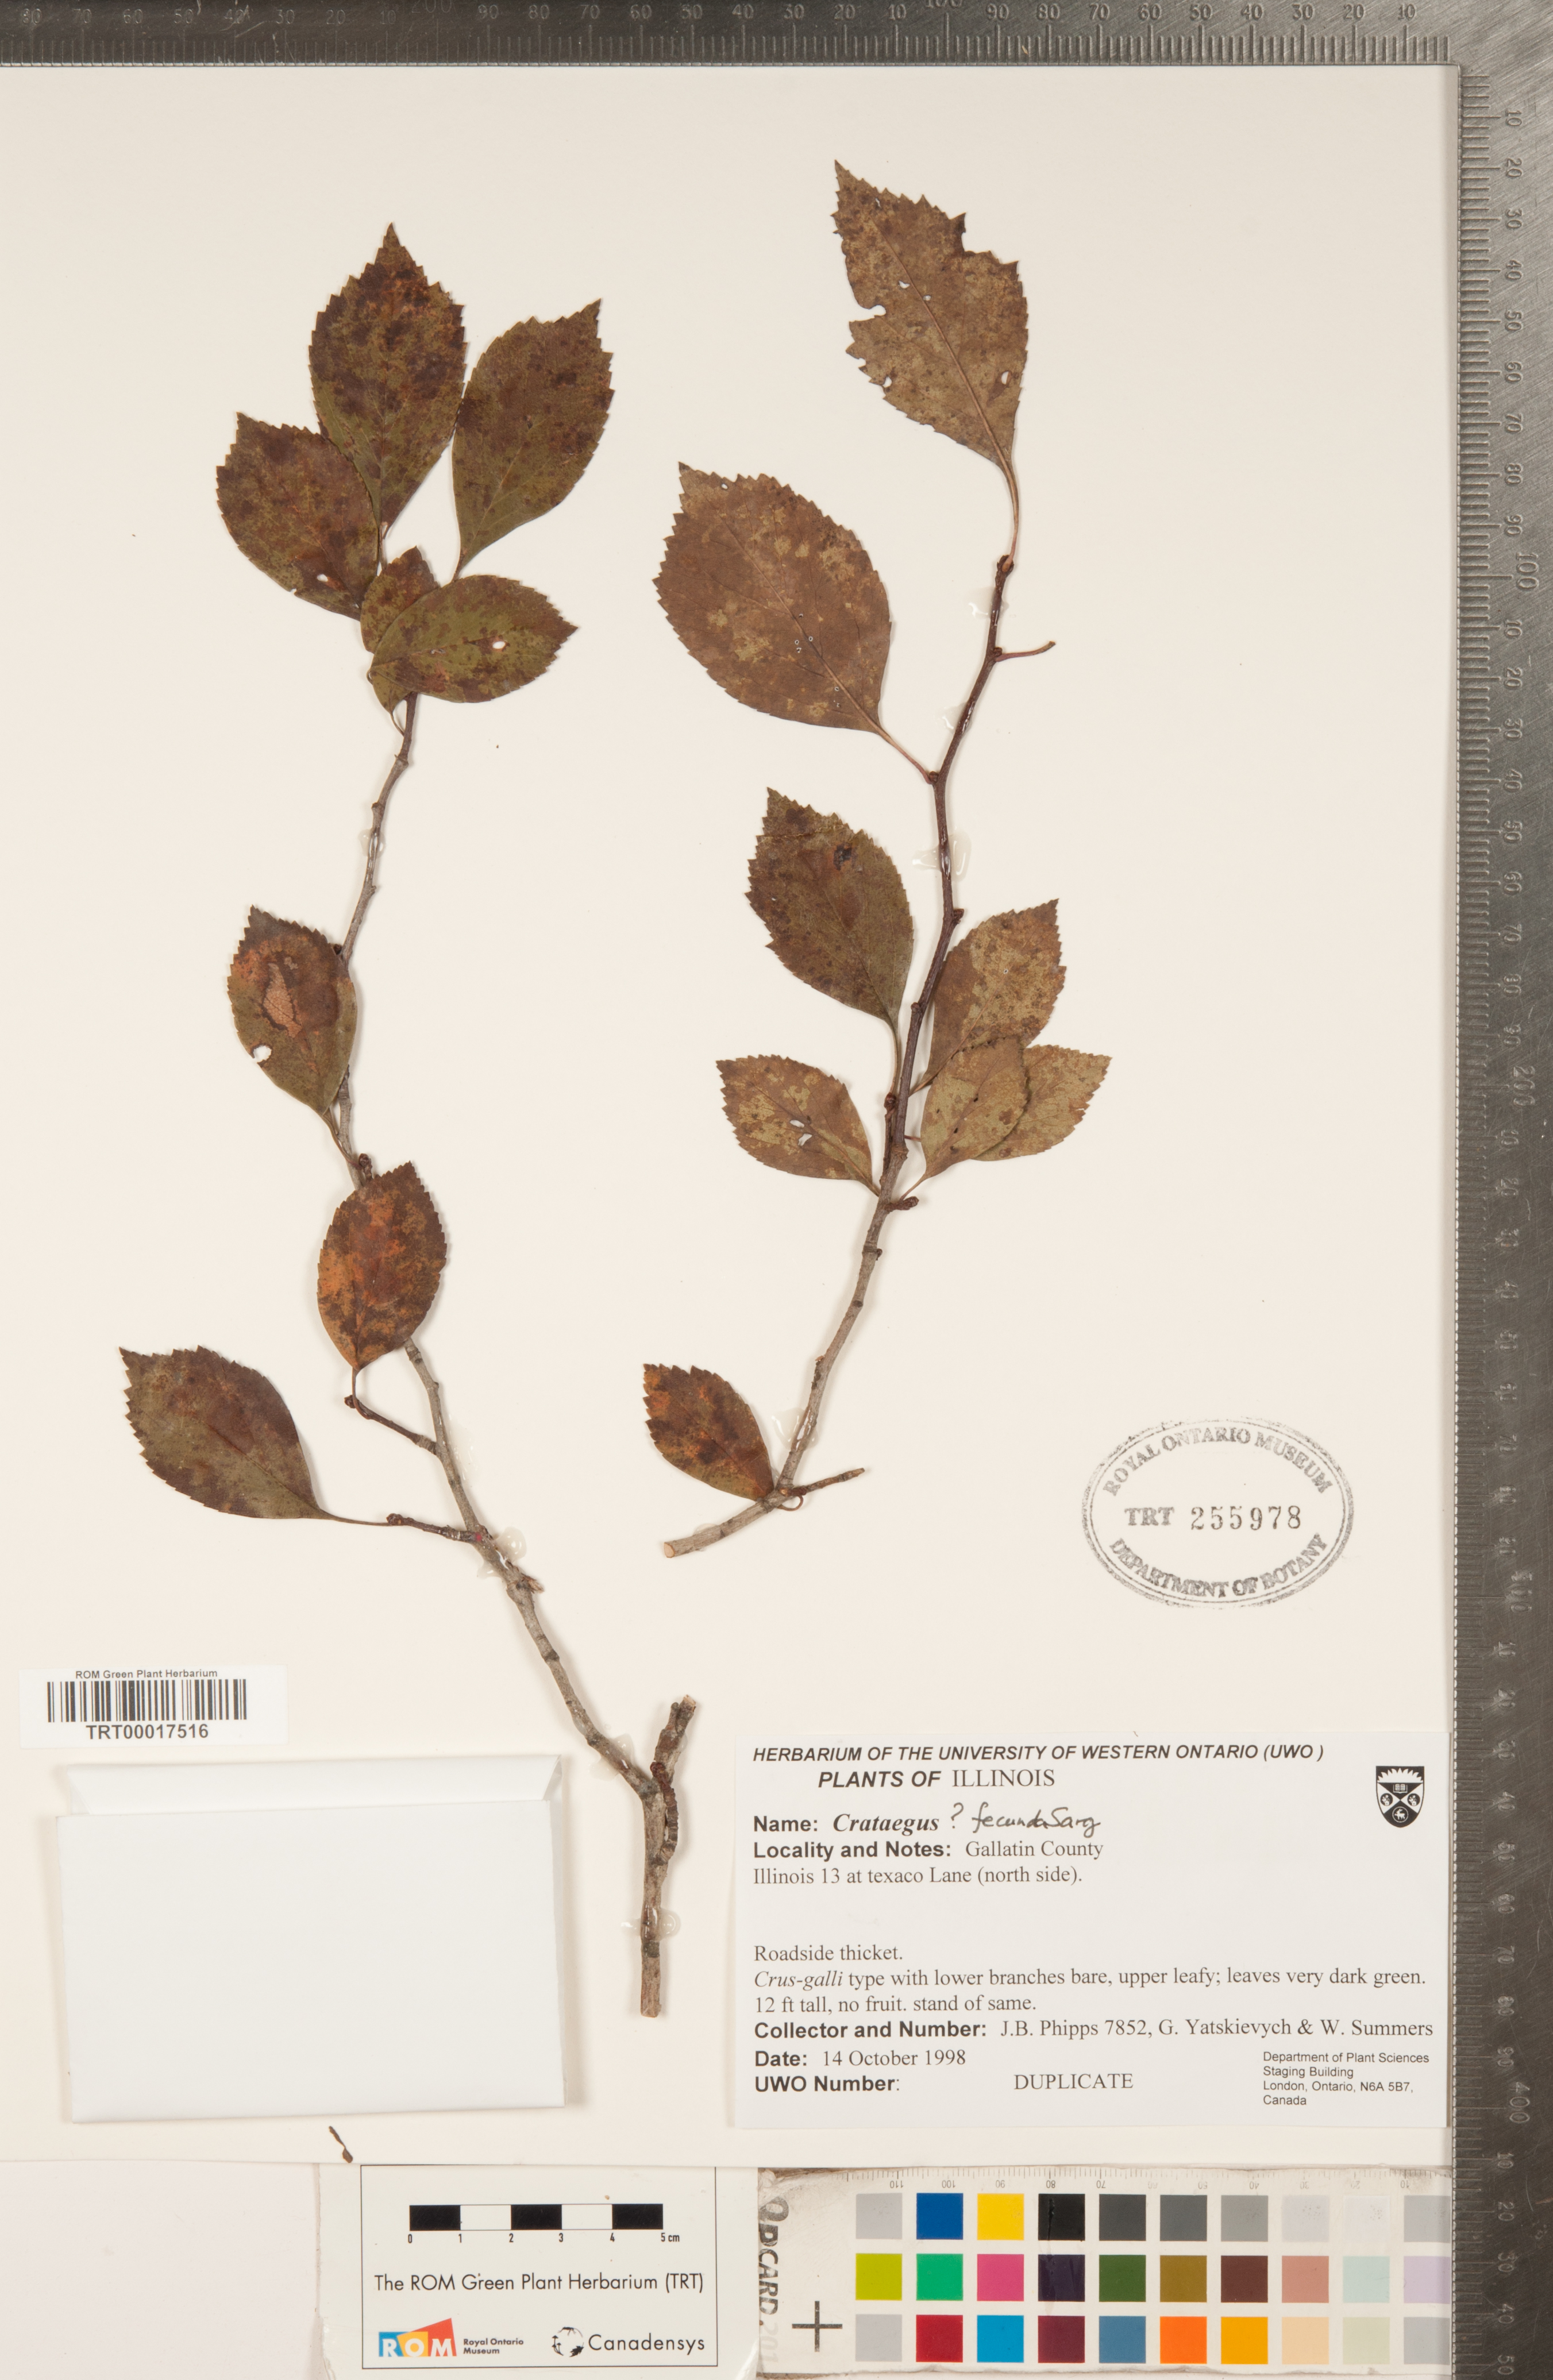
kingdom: Plantae
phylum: Tracheophyta
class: Magnoliopsida
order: Rosales
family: Rosaceae
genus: Crataegus
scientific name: Crataegus fecunda
